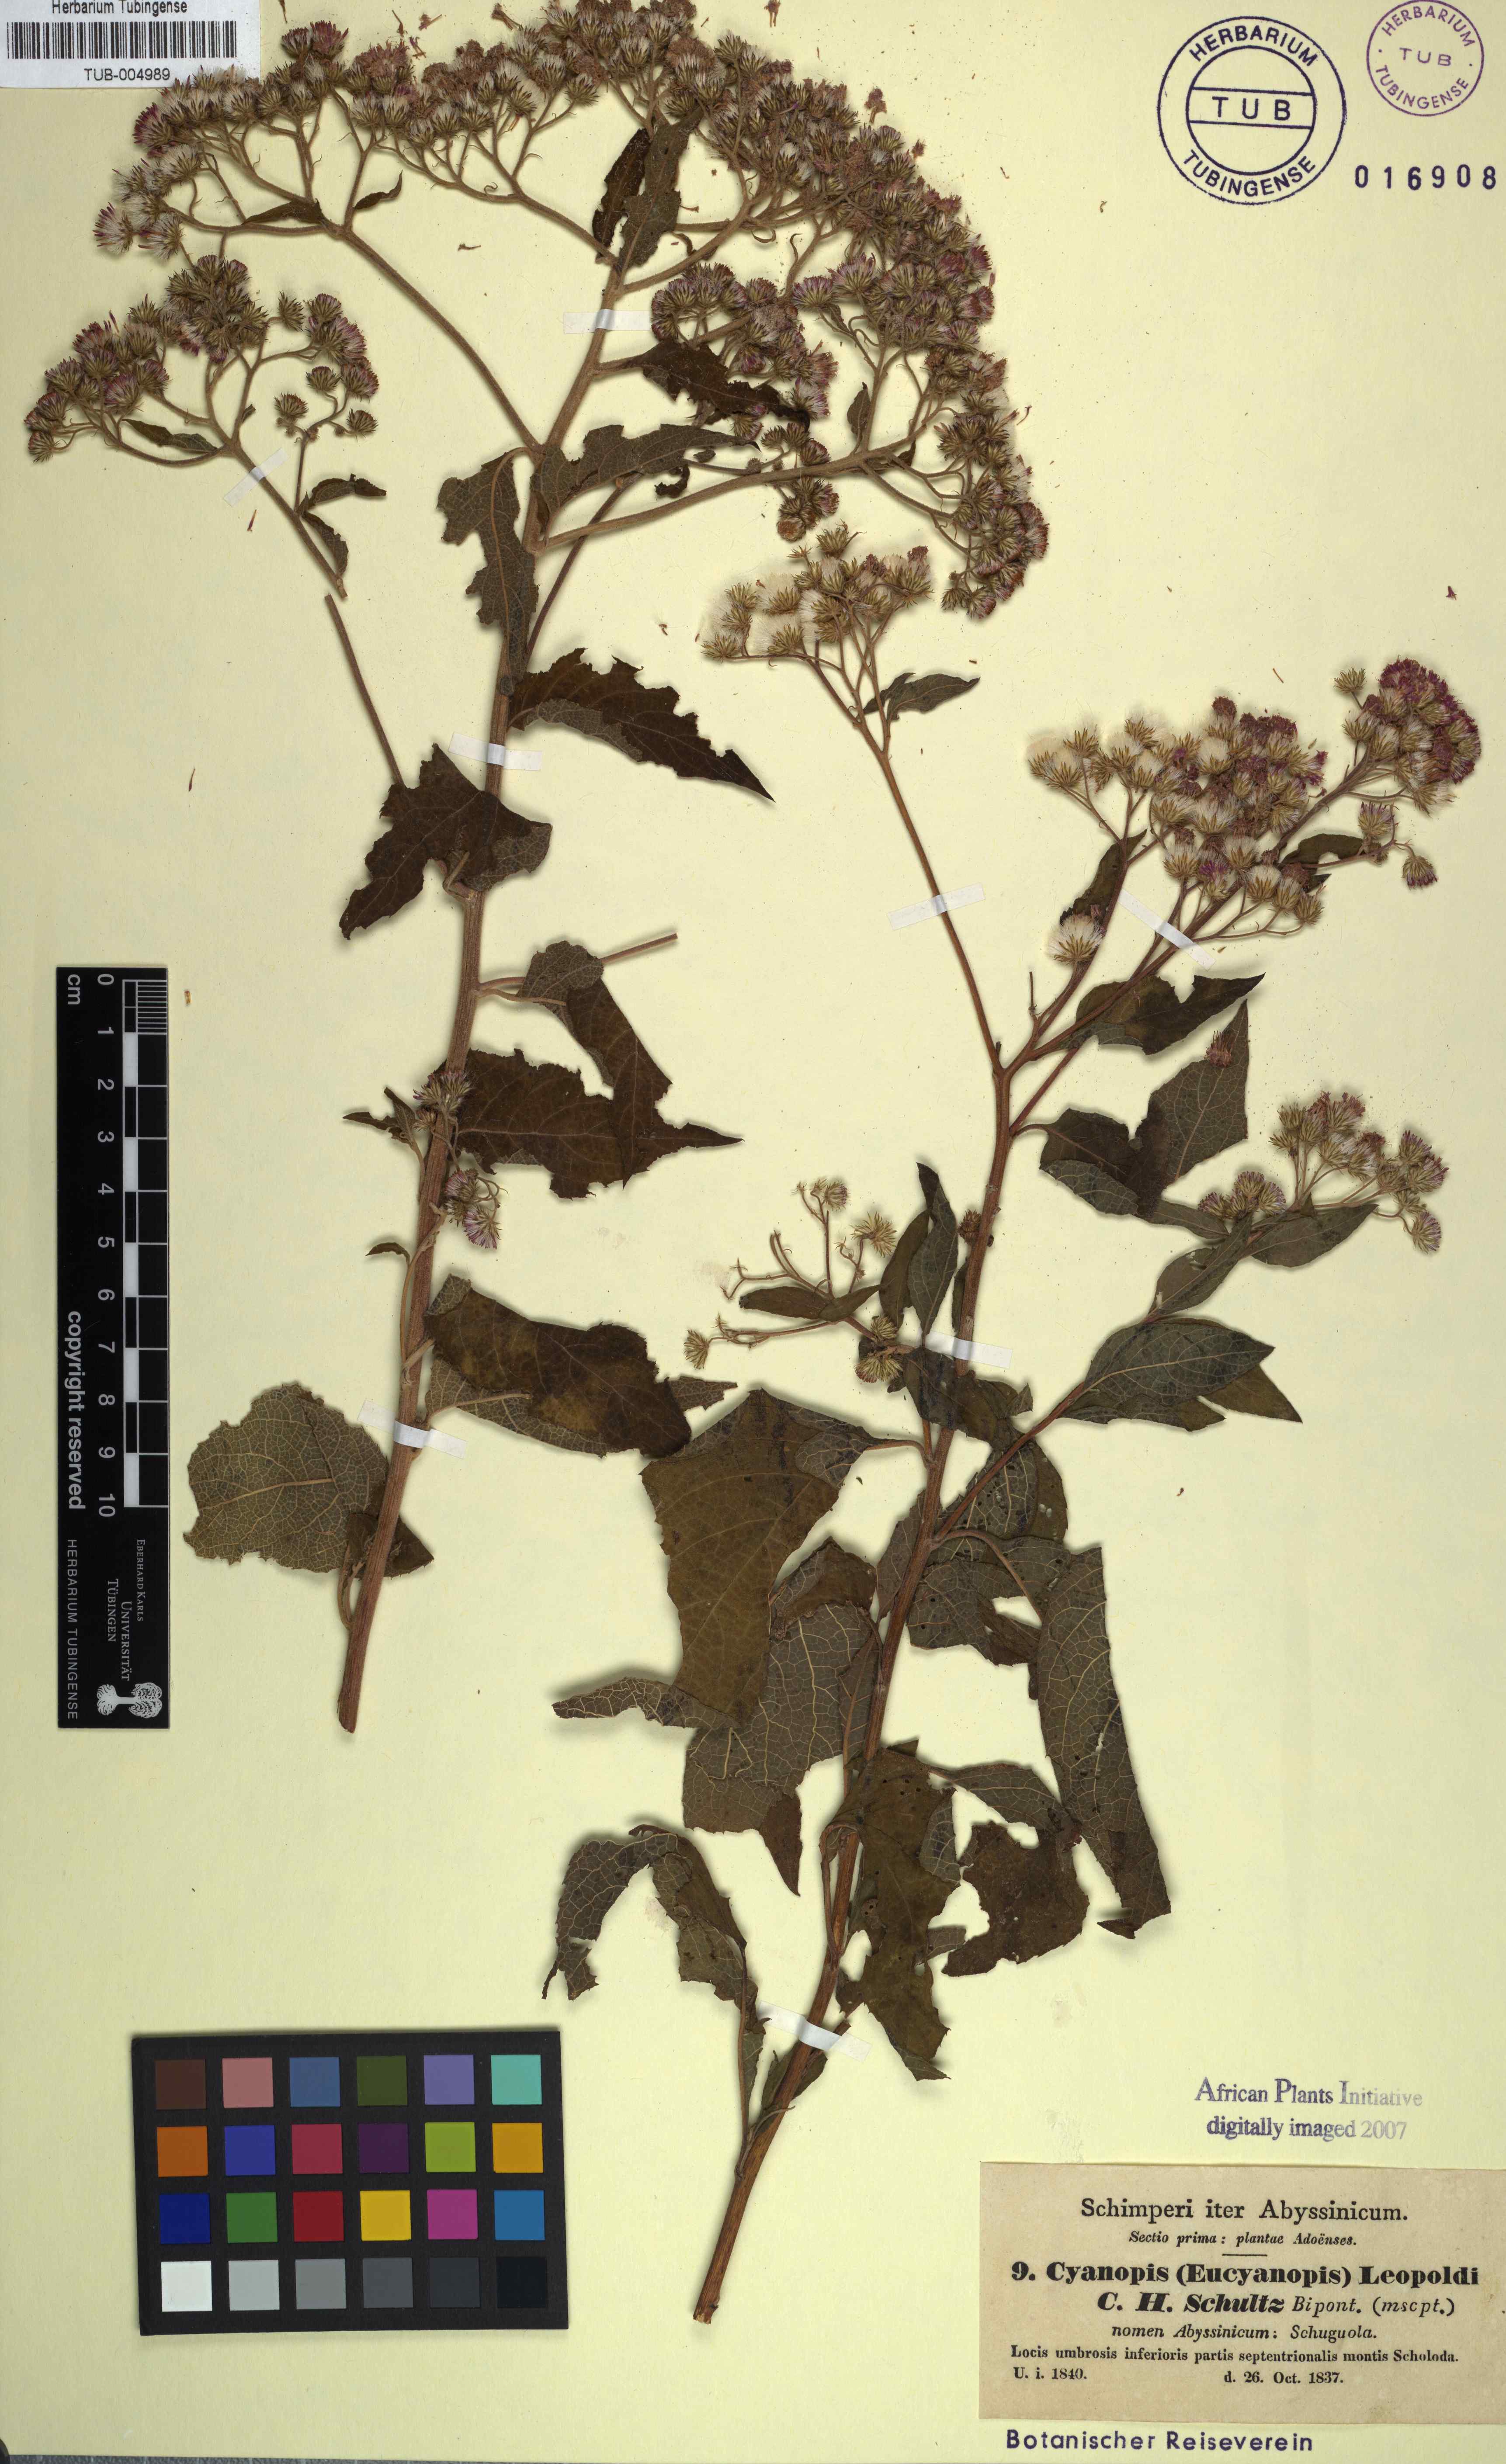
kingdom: Plantae
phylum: Tracheophyta
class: Magnoliopsida
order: Asterales
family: Asteraceae
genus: Orbivestus
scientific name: Orbivestus leopoldii
